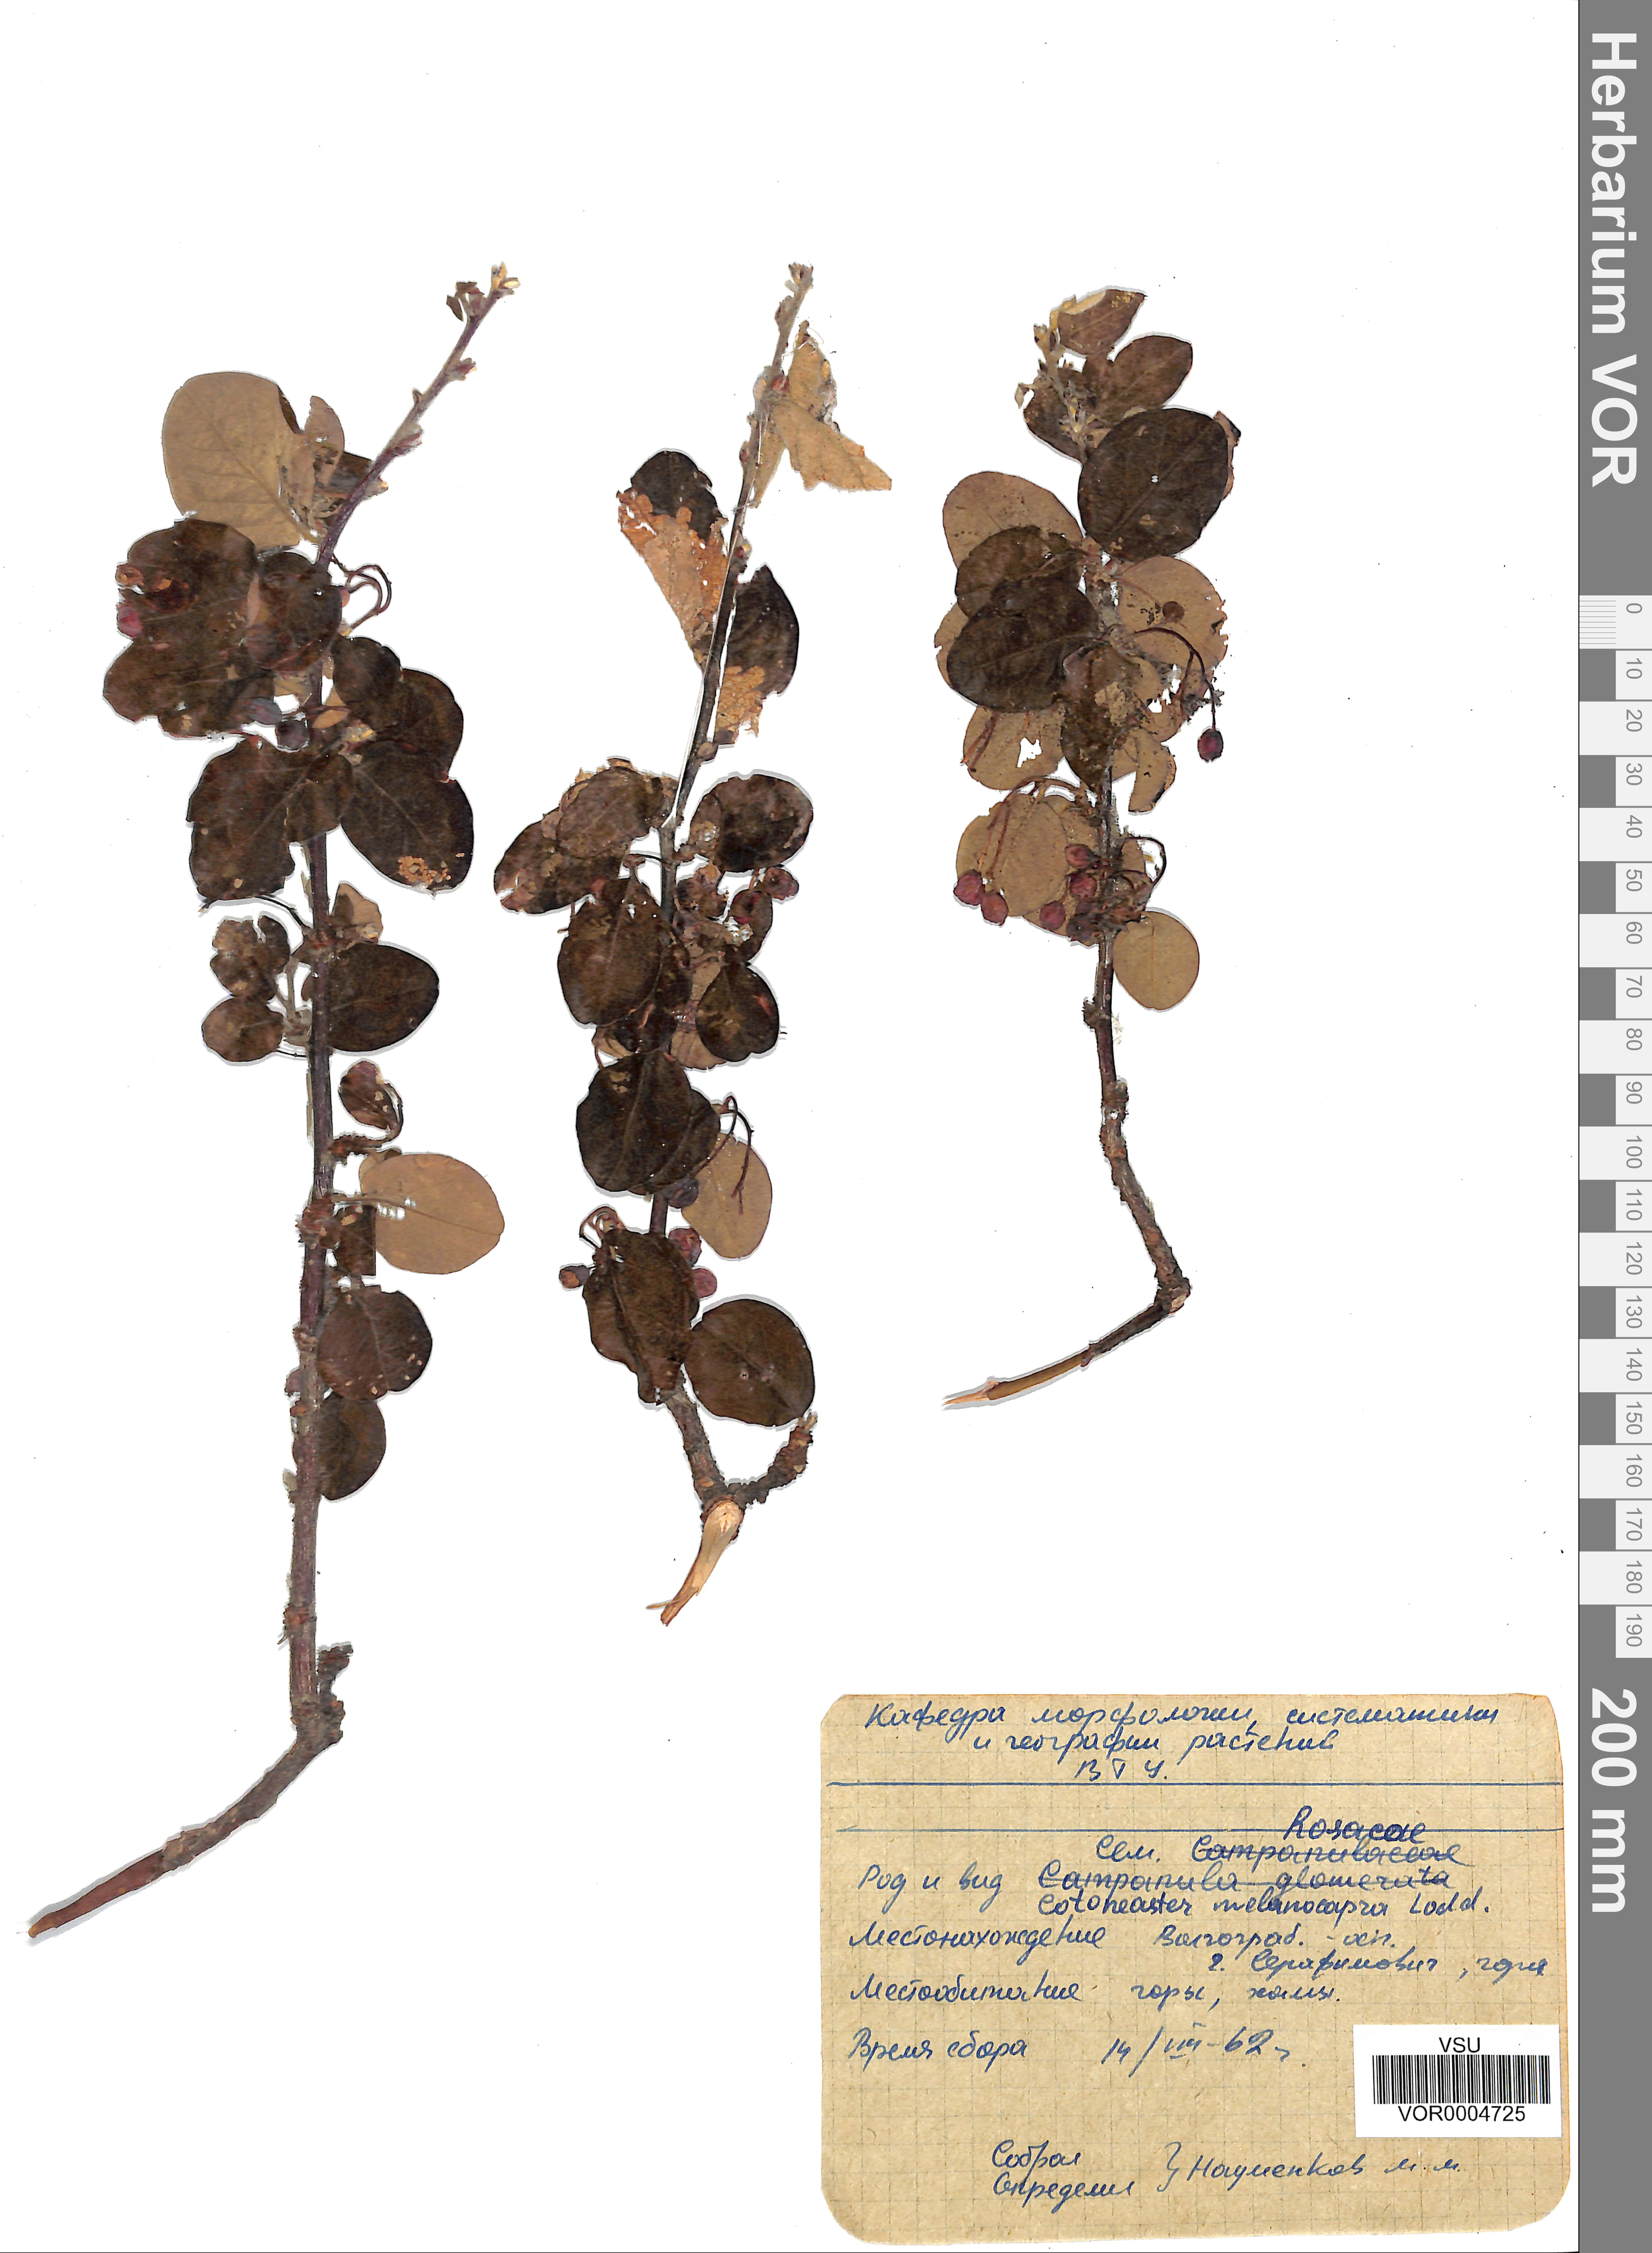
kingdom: Plantae
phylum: Tracheophyta
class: Magnoliopsida
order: Rosales
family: Rosaceae
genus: Cotoneaster
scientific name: Cotoneaster melanocarpus
